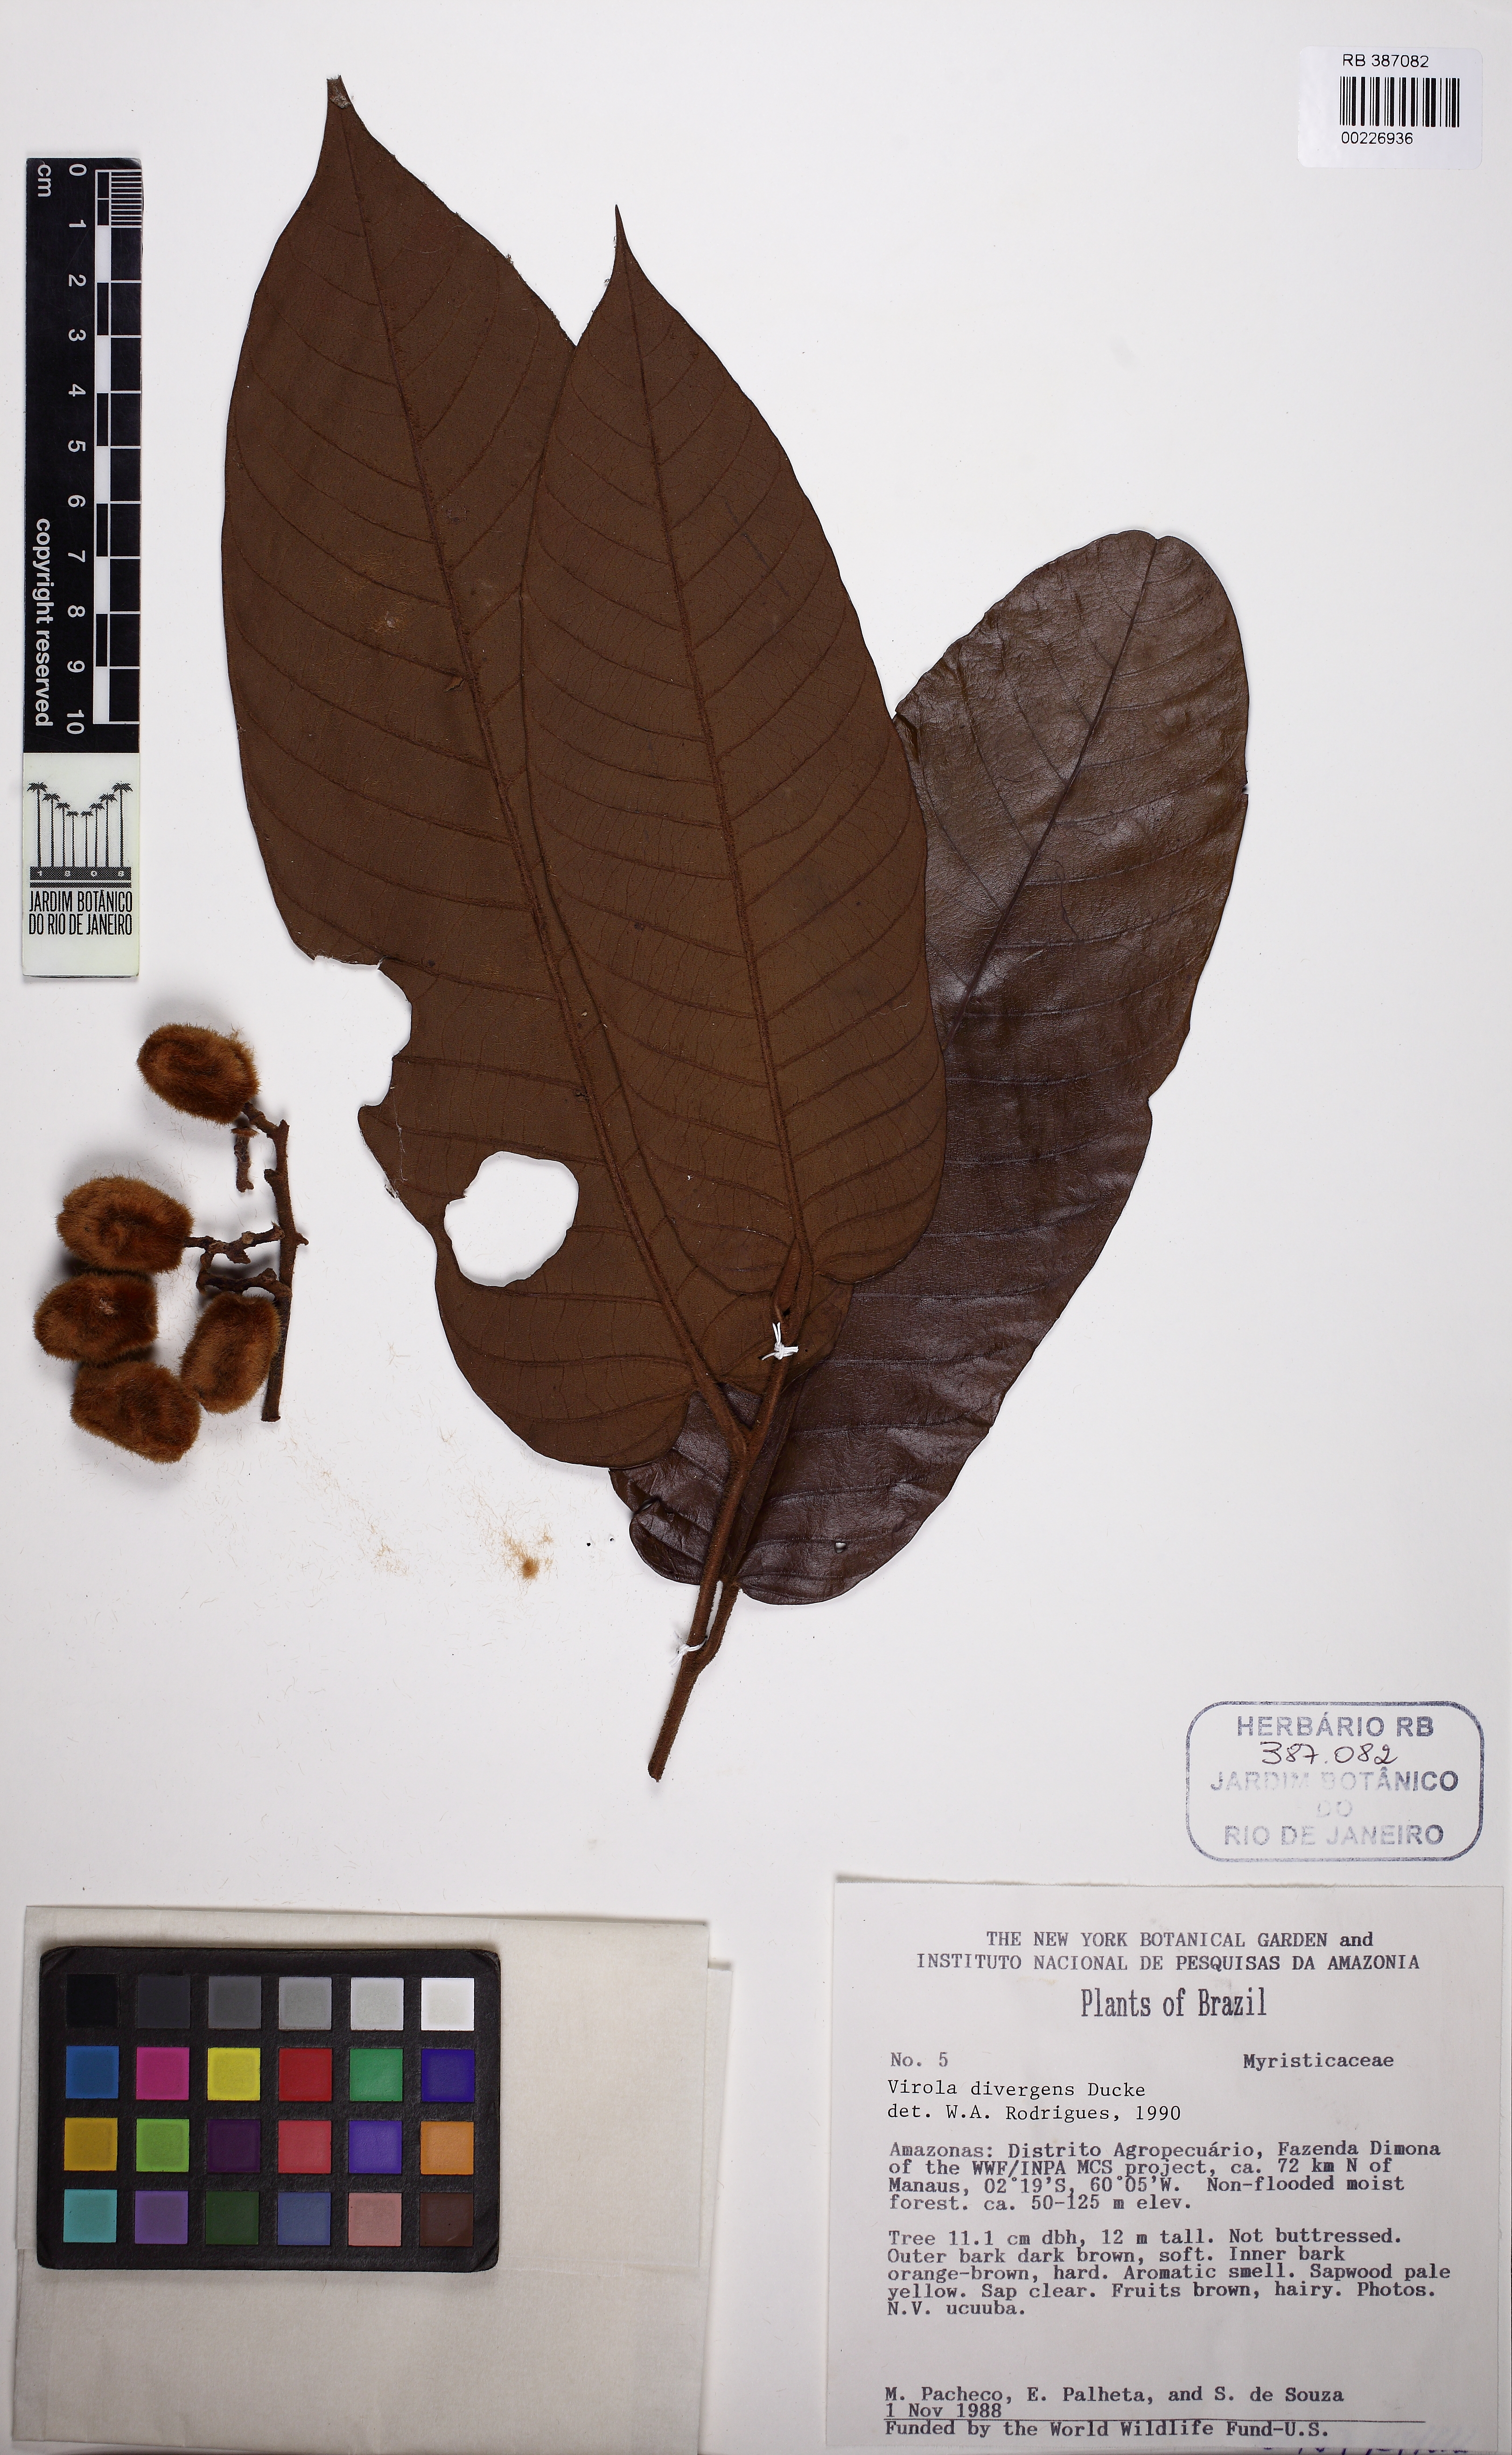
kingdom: Plantae
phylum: Tracheophyta
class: Magnoliopsida
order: Magnoliales
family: Myristicaceae
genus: Virola
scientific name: Virola divergens
